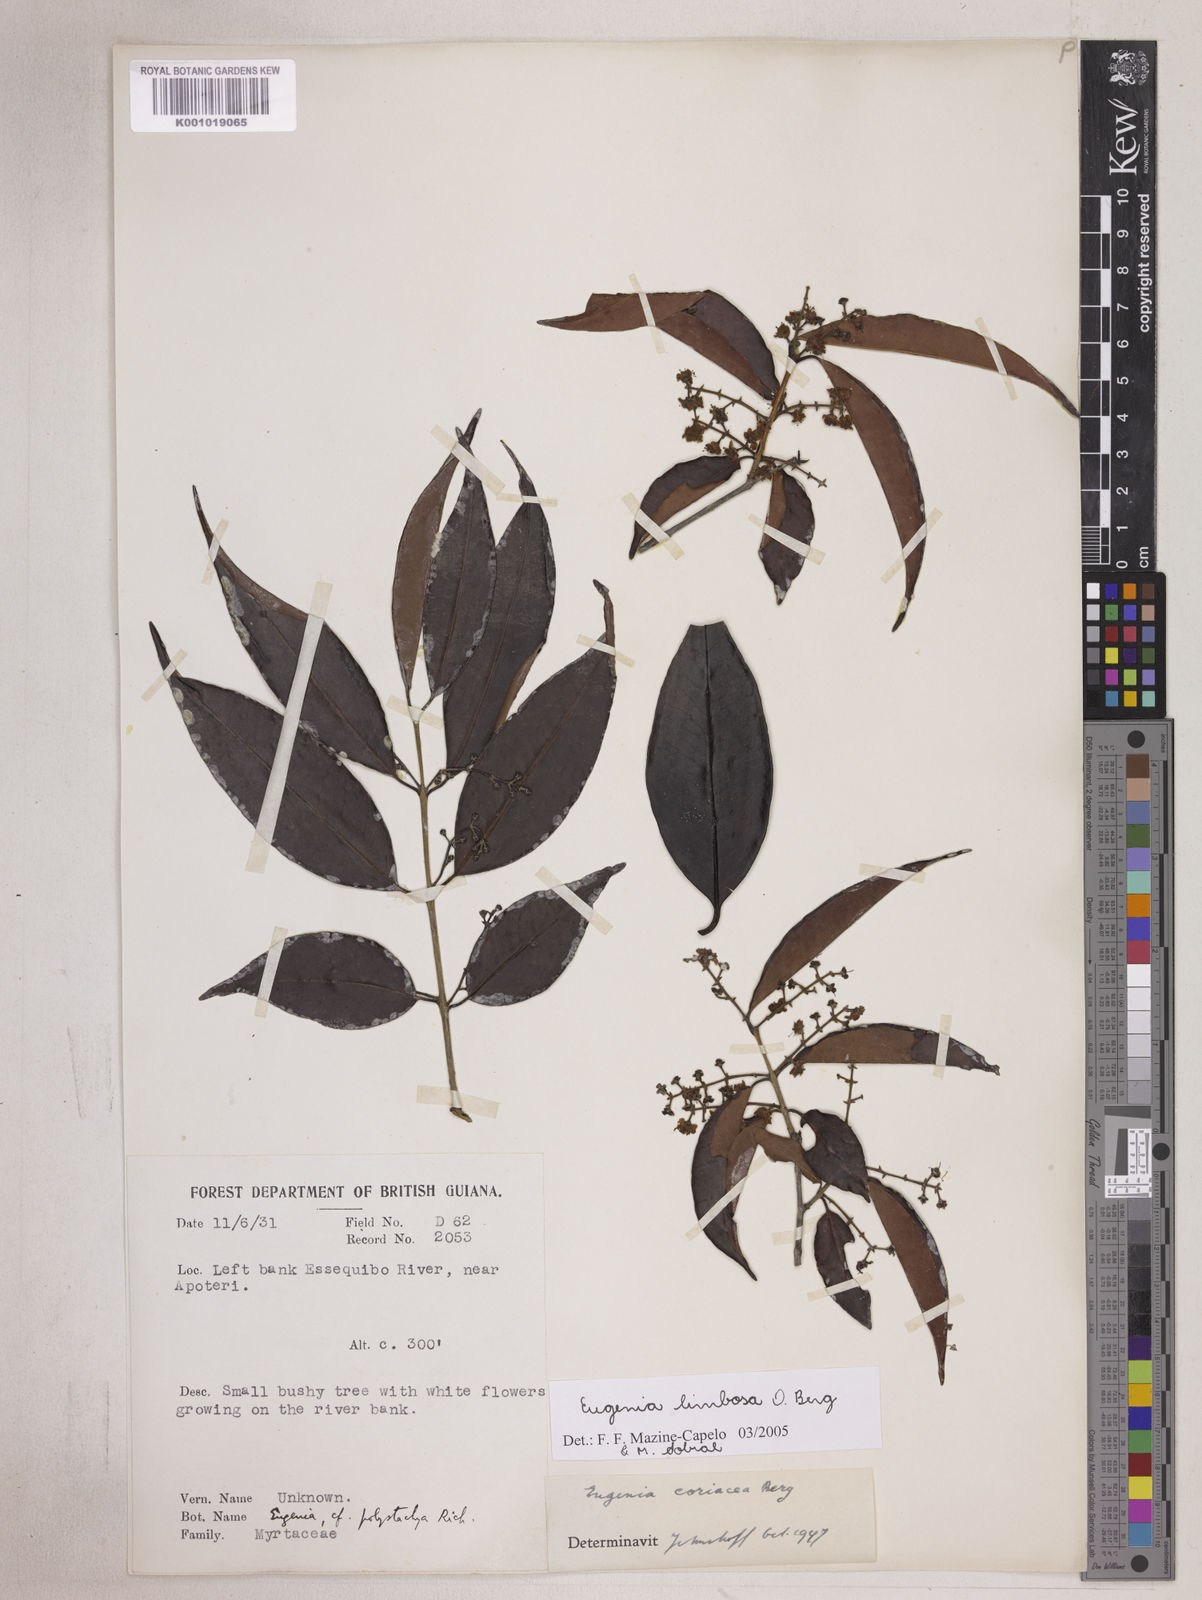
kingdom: Plantae
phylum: Tracheophyta
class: Magnoliopsida
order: Myrtales
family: Myrtaceae
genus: Eugenia
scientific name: Eugenia limbosa
